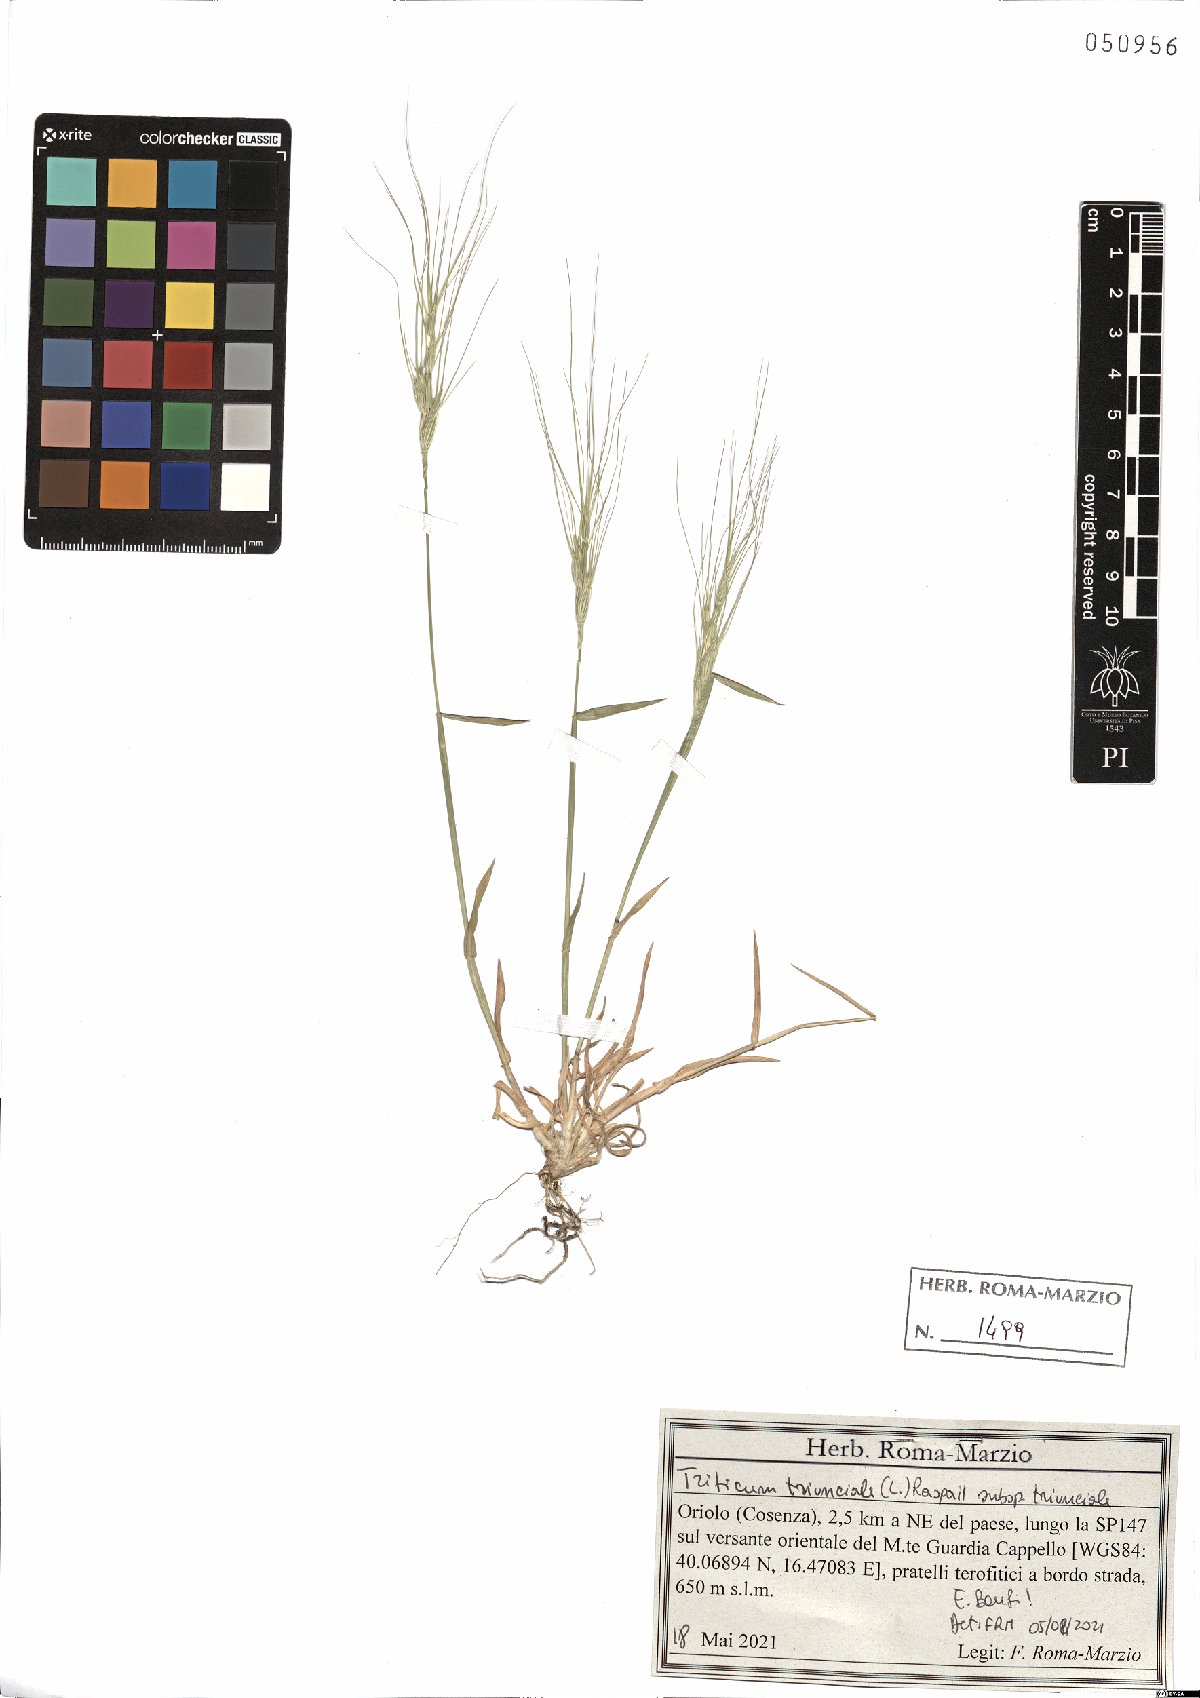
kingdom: Plantae
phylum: Tracheophyta
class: Liliopsida
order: Poales
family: Poaceae
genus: Aegilops
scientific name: Aegilops triuncialis
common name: Barb goat grass
